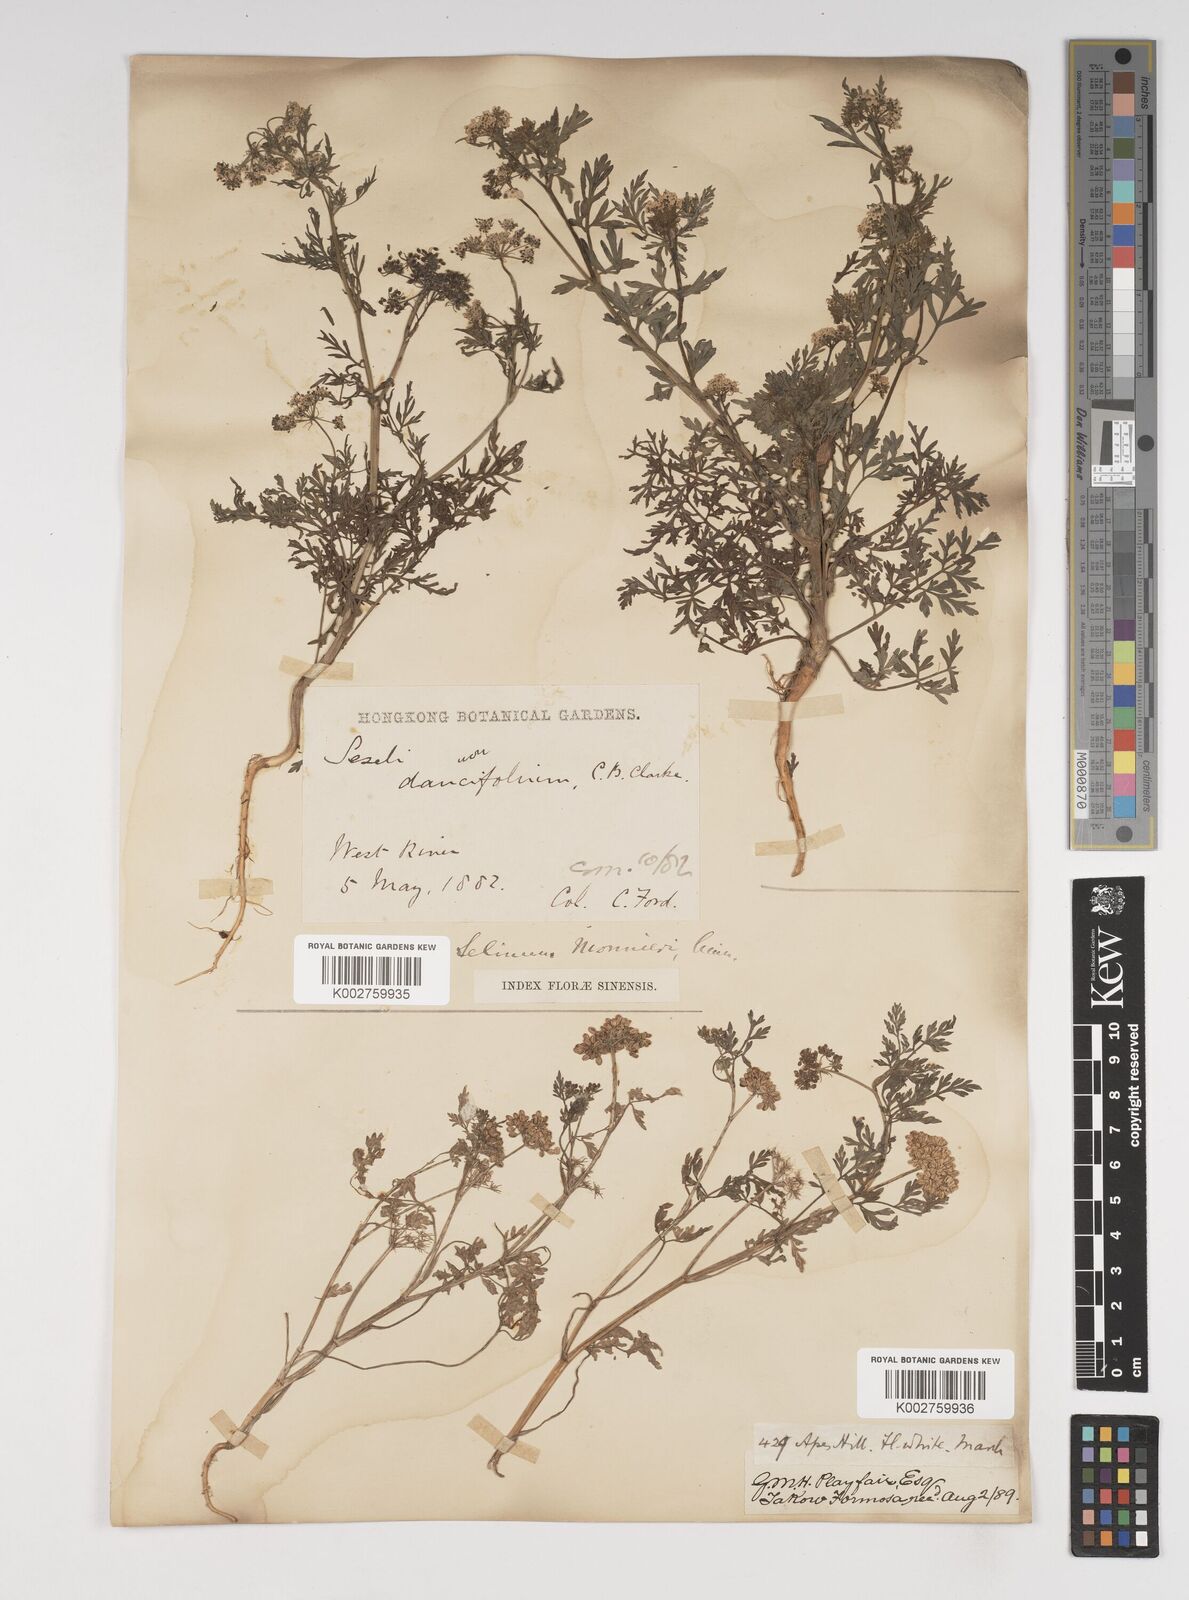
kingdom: Plantae
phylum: Tracheophyta
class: Magnoliopsida
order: Apiales
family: Apiaceae
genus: Cnidium
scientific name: Cnidium monnieri
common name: Monnier's snowparsley
